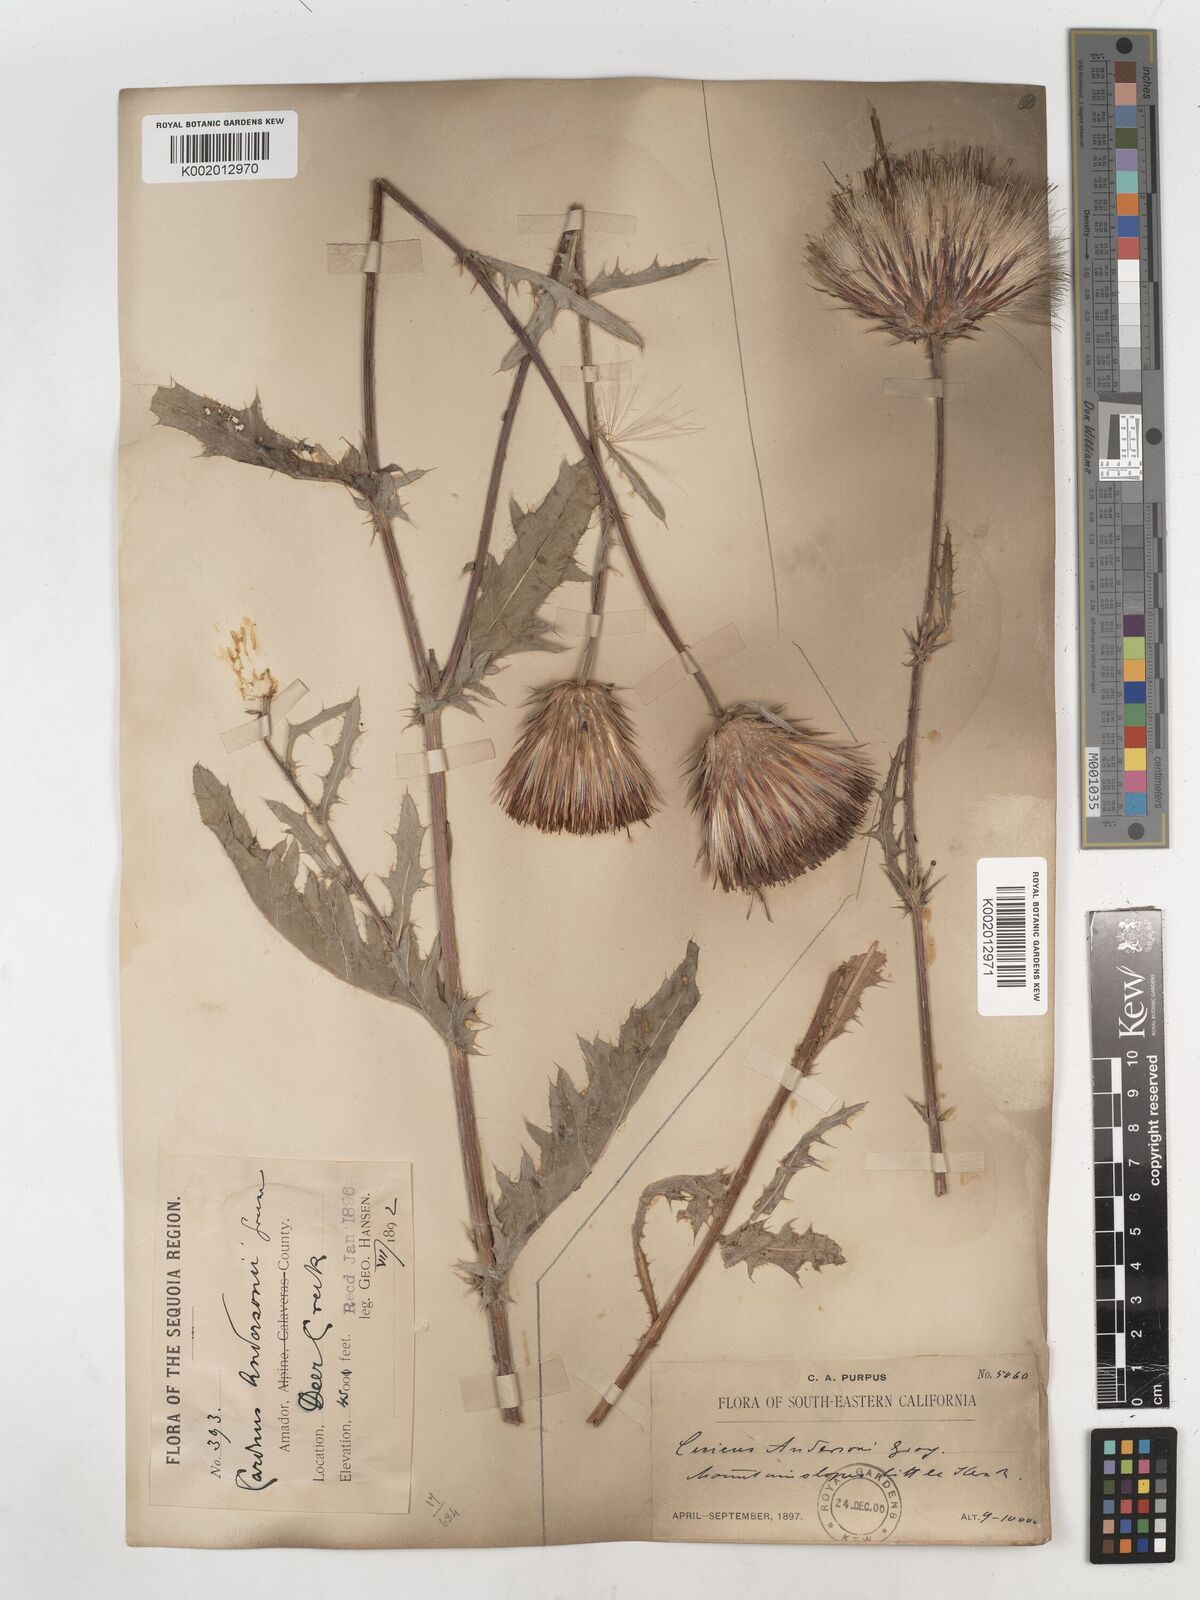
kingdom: Plantae
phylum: Tracheophyta
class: Magnoliopsida
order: Asterales
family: Asteraceae
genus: Cirsium
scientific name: Cirsium
